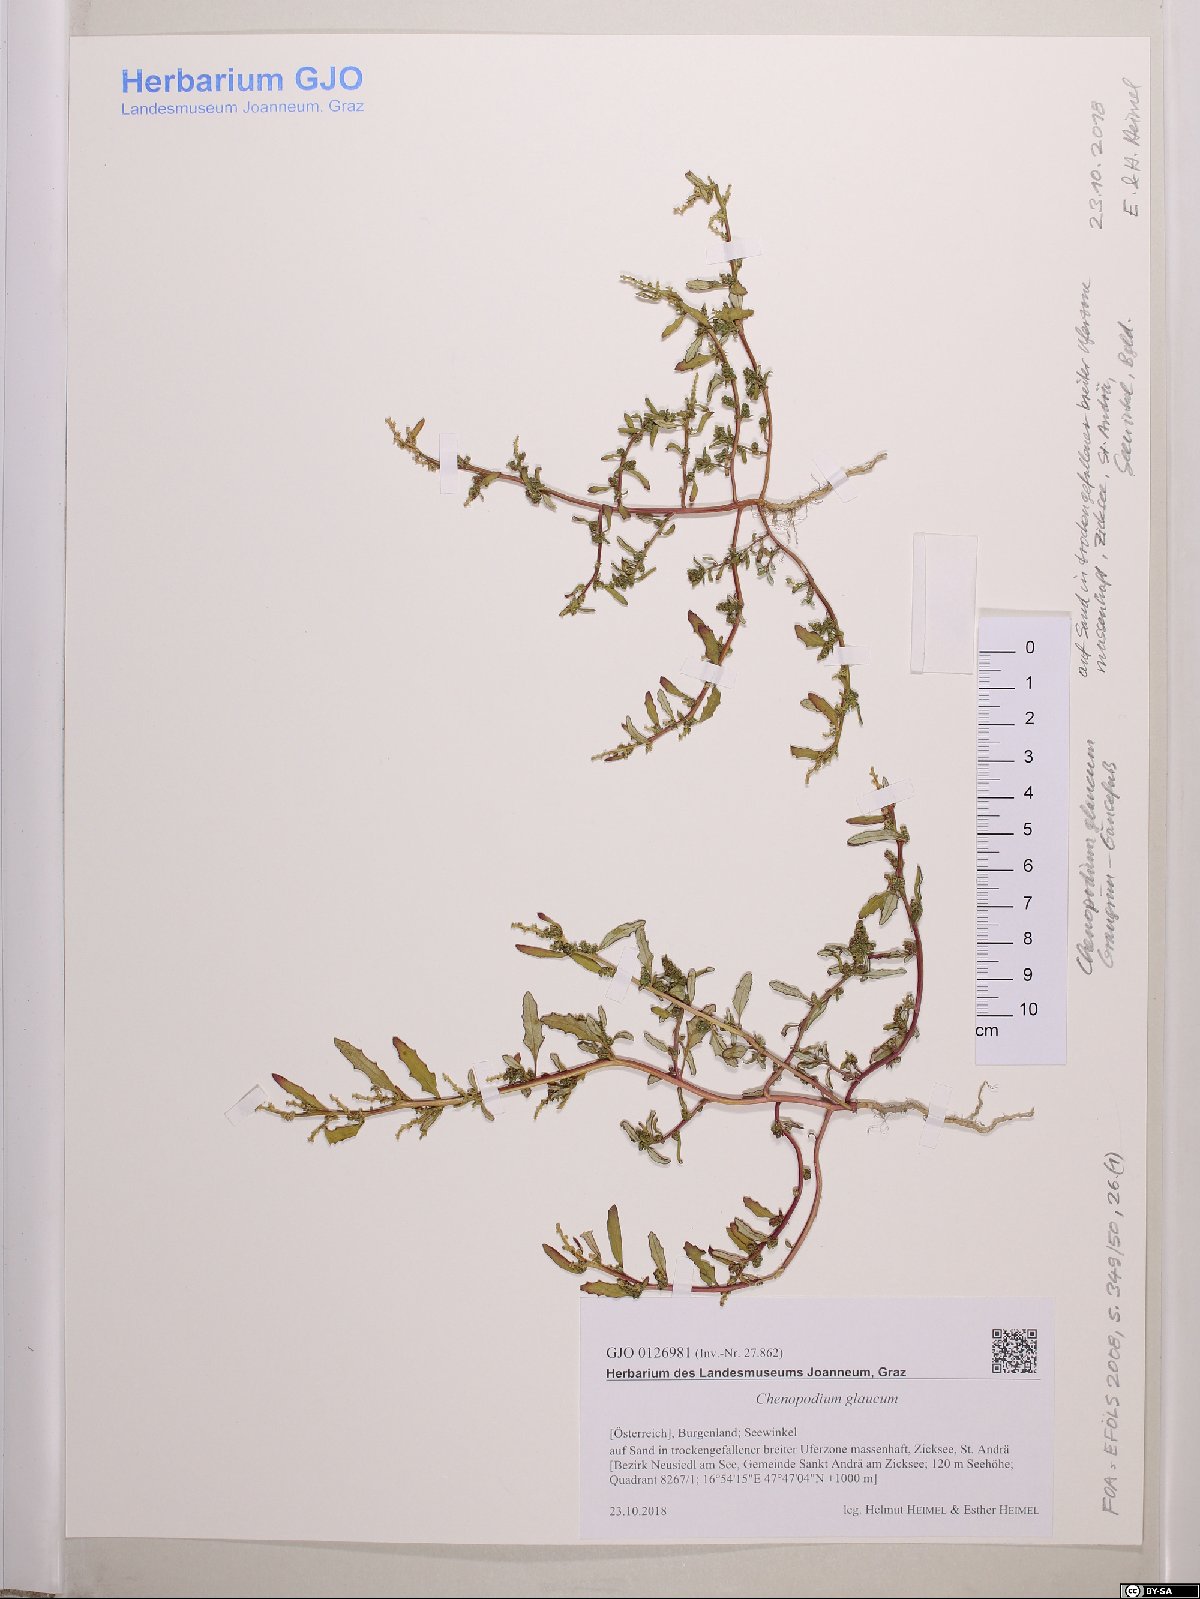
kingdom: Plantae
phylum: Tracheophyta
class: Magnoliopsida
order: Caryophyllales
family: Amaranthaceae
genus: Oxybasis
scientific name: Oxybasis glauca
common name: Glaucous goosefoot
